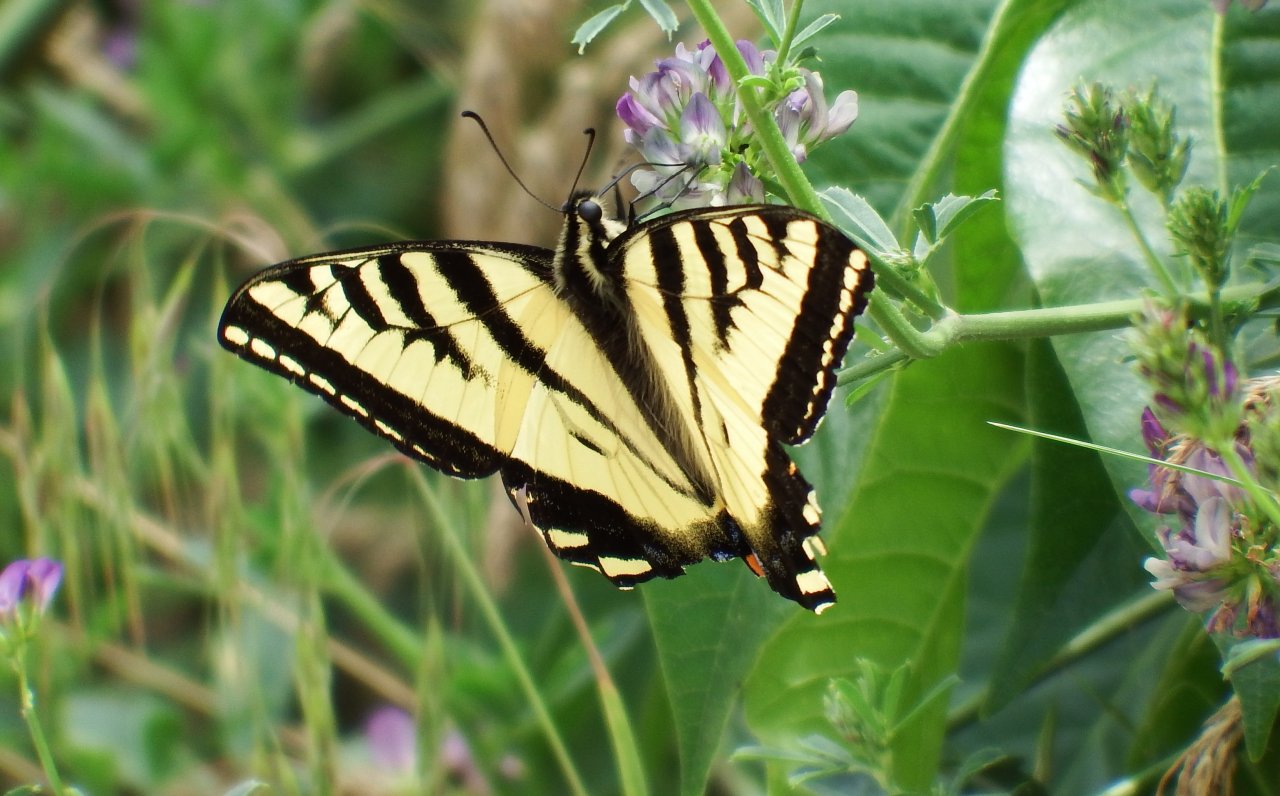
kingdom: Animalia
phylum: Arthropoda
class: Insecta
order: Lepidoptera
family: Papilionidae
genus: Pterourus
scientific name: Pterourus rutulus
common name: Western Tiger Swallowtail
